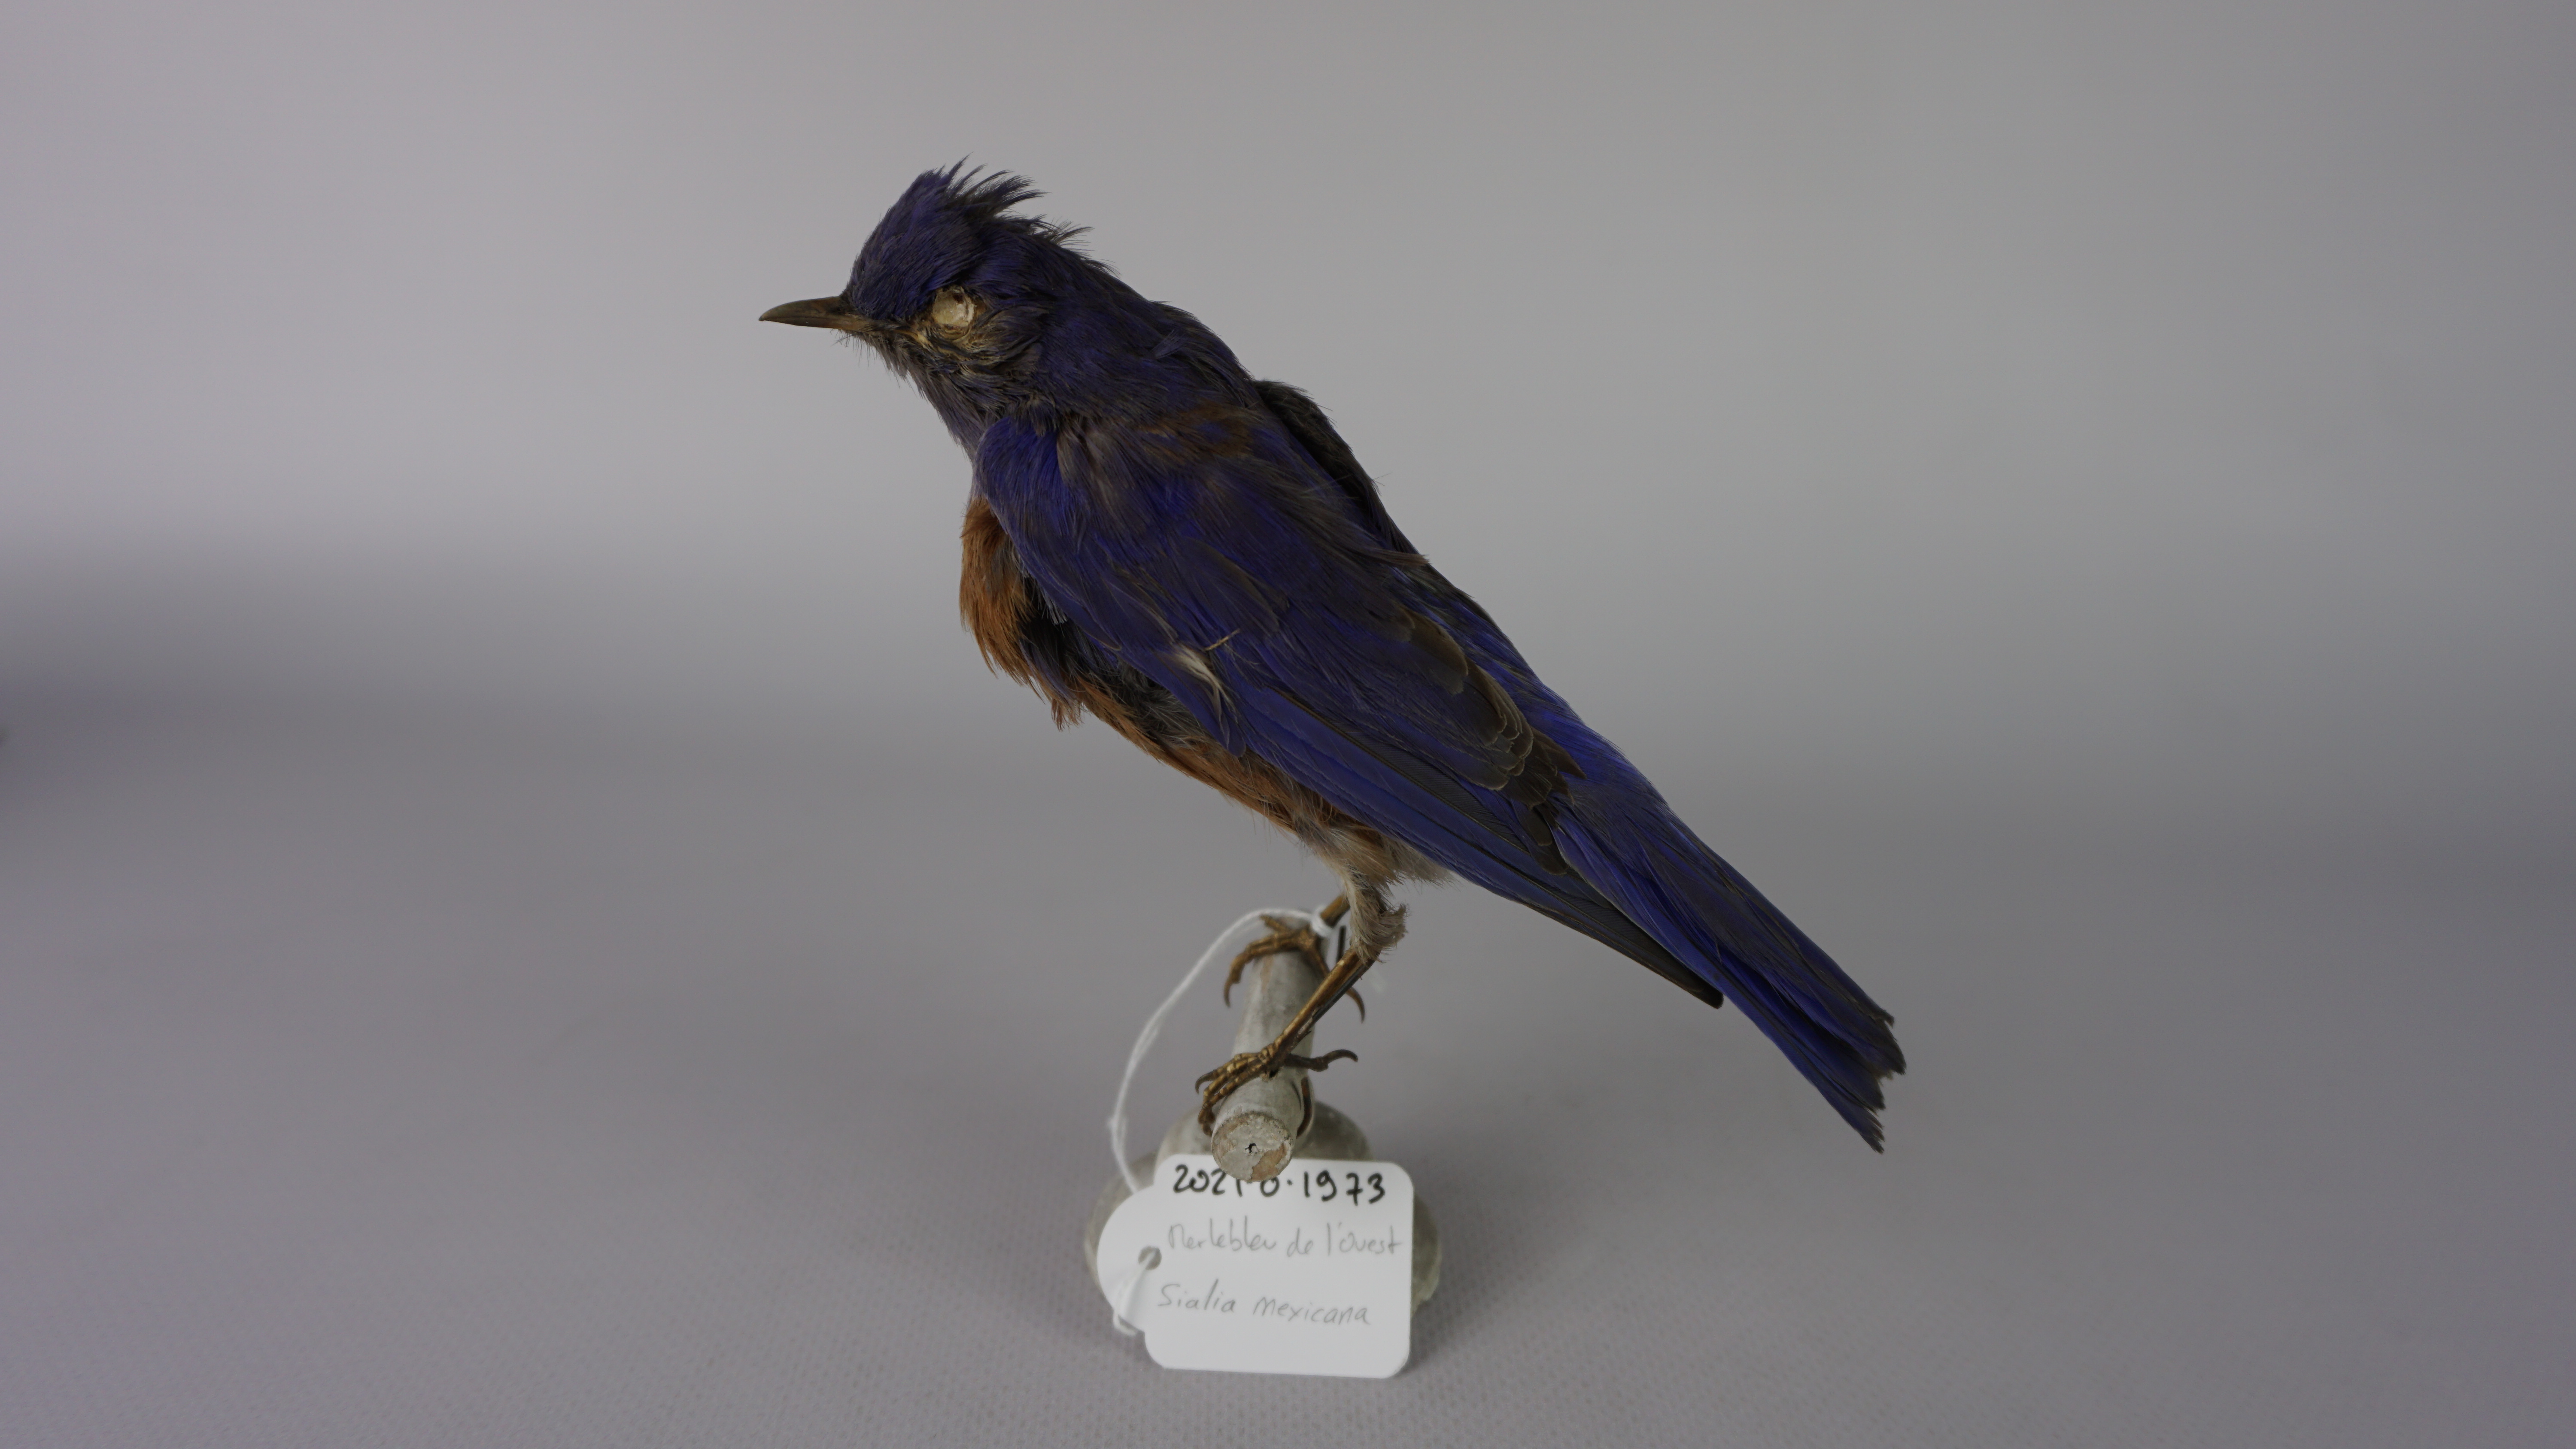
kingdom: Animalia
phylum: Chordata
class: Aves
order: Passeriformes
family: Turdidae
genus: Sialia
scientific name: Sialia mexicana
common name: Western bluebird
